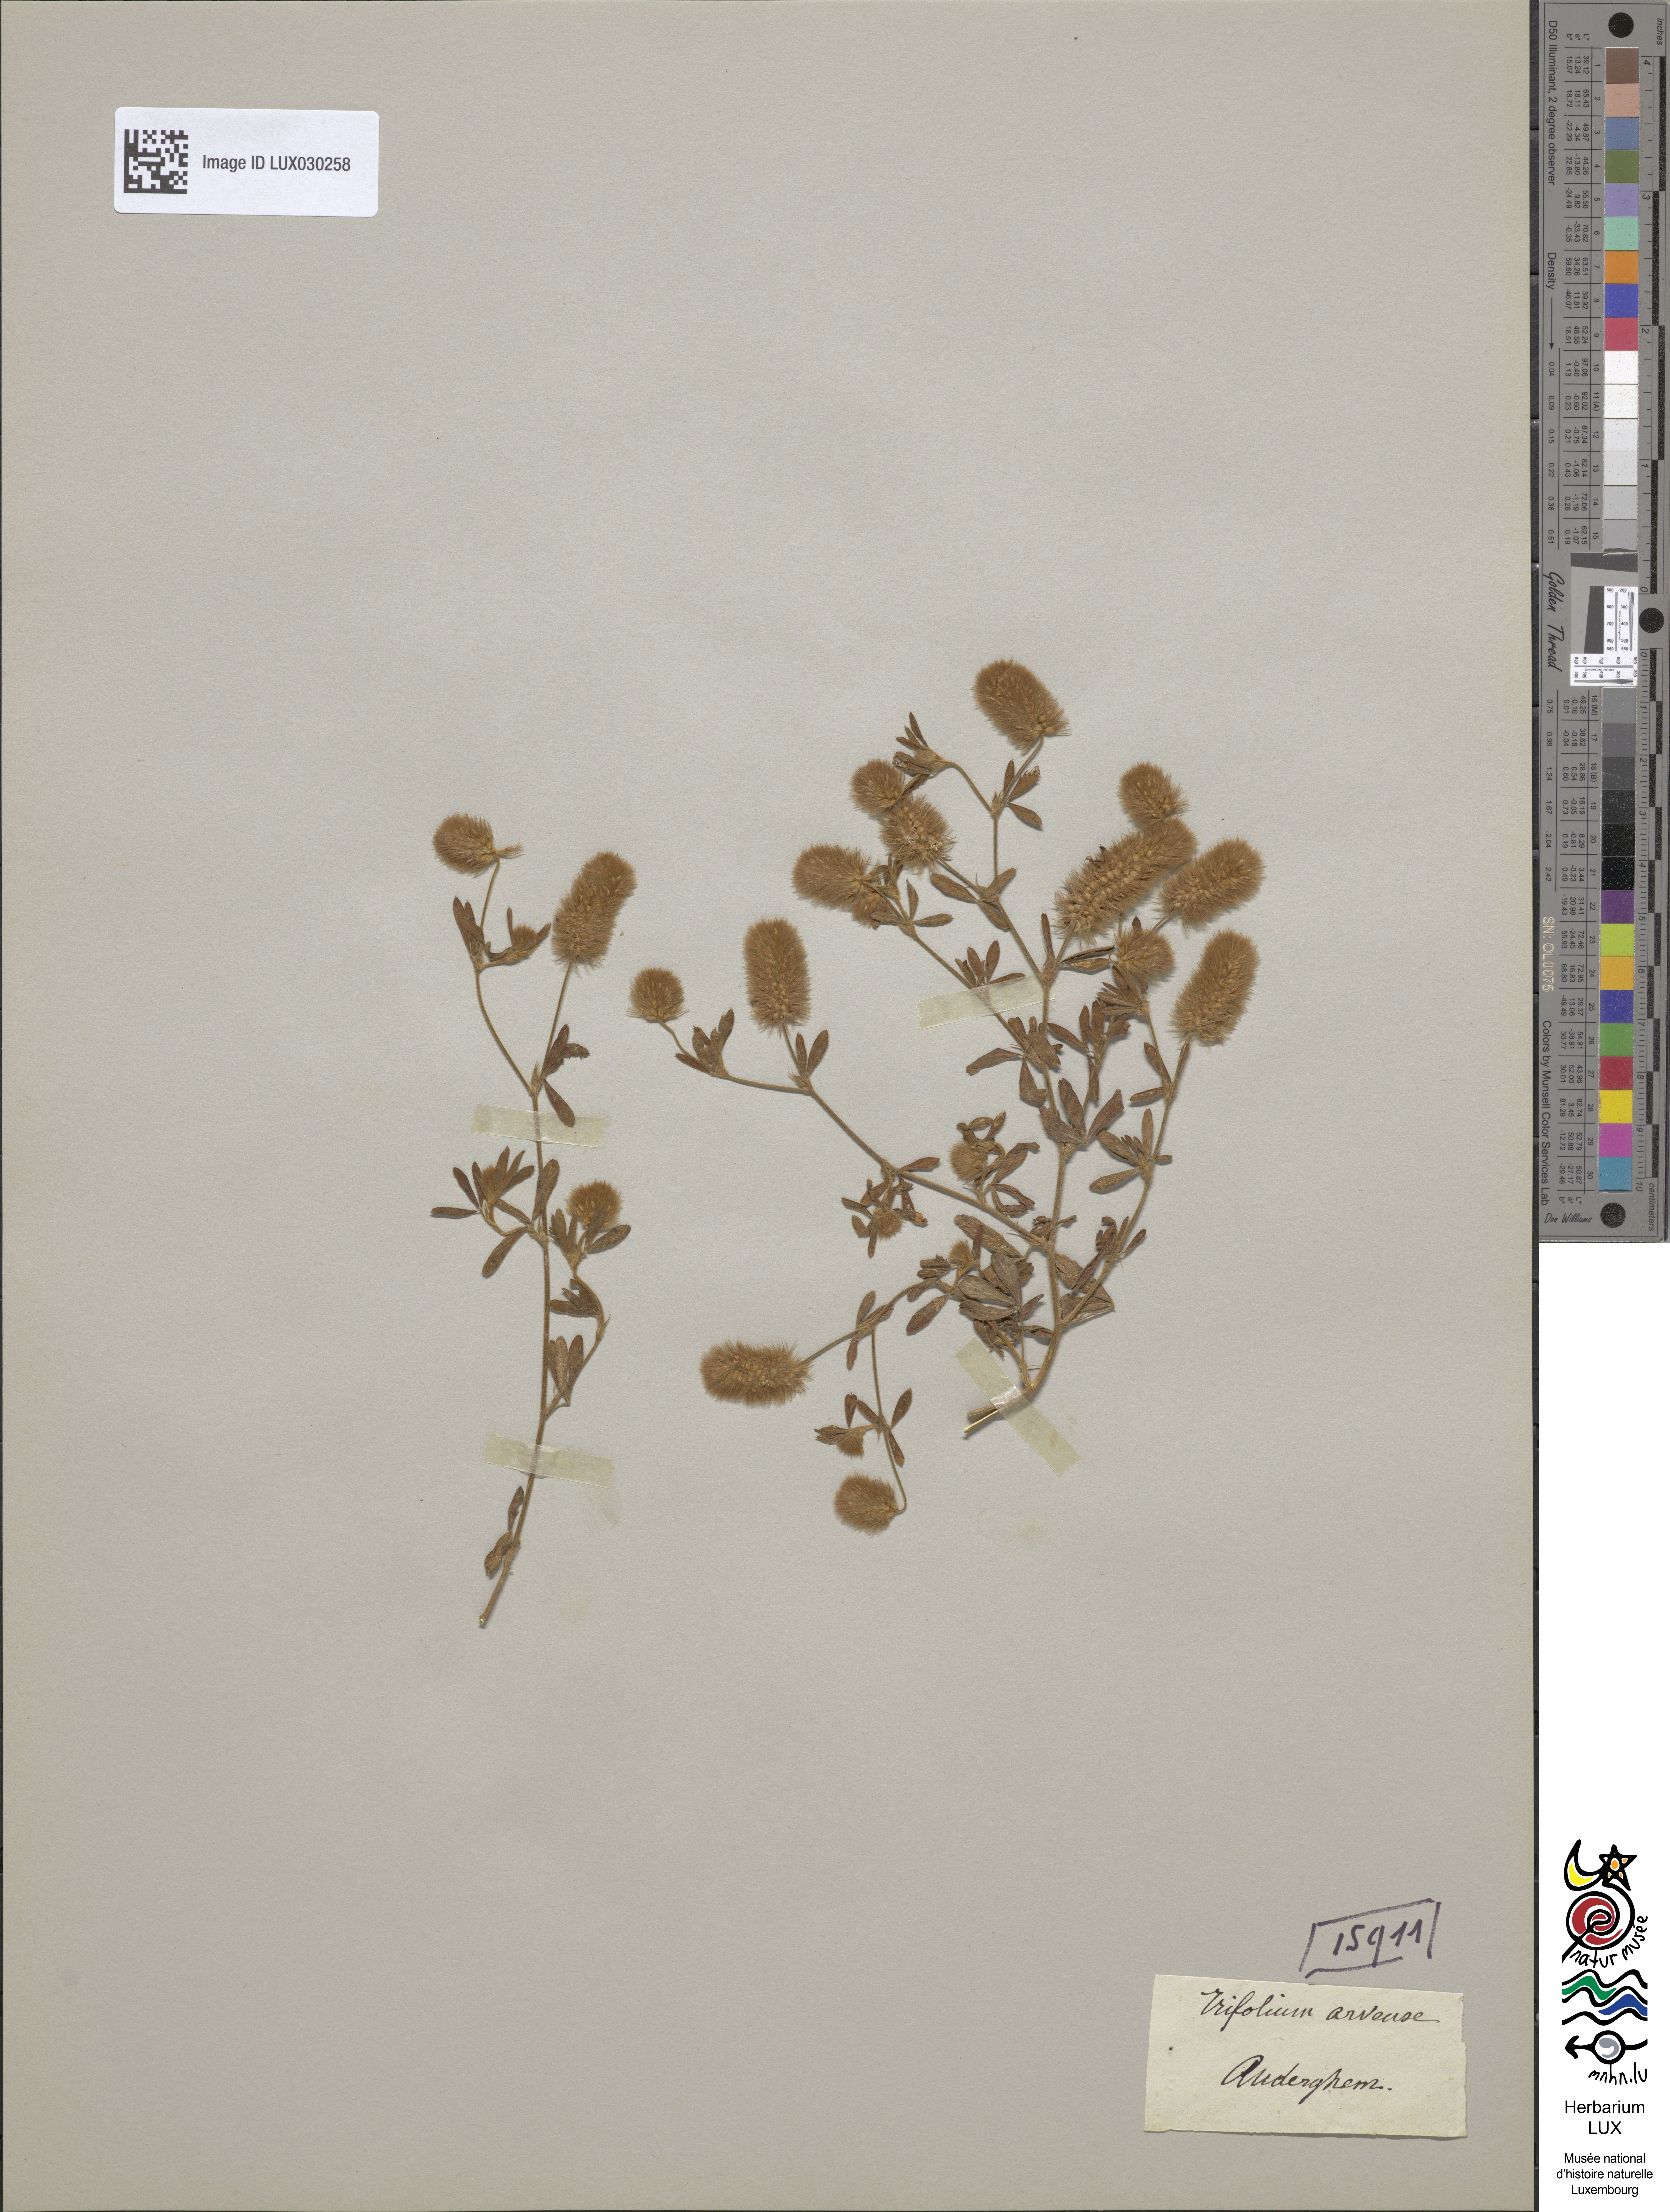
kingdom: Plantae
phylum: Tracheophyta
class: Magnoliopsida
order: Fabales
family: Fabaceae
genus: Trifolium
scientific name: Trifolium arvense
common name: Hare's-foot clover
